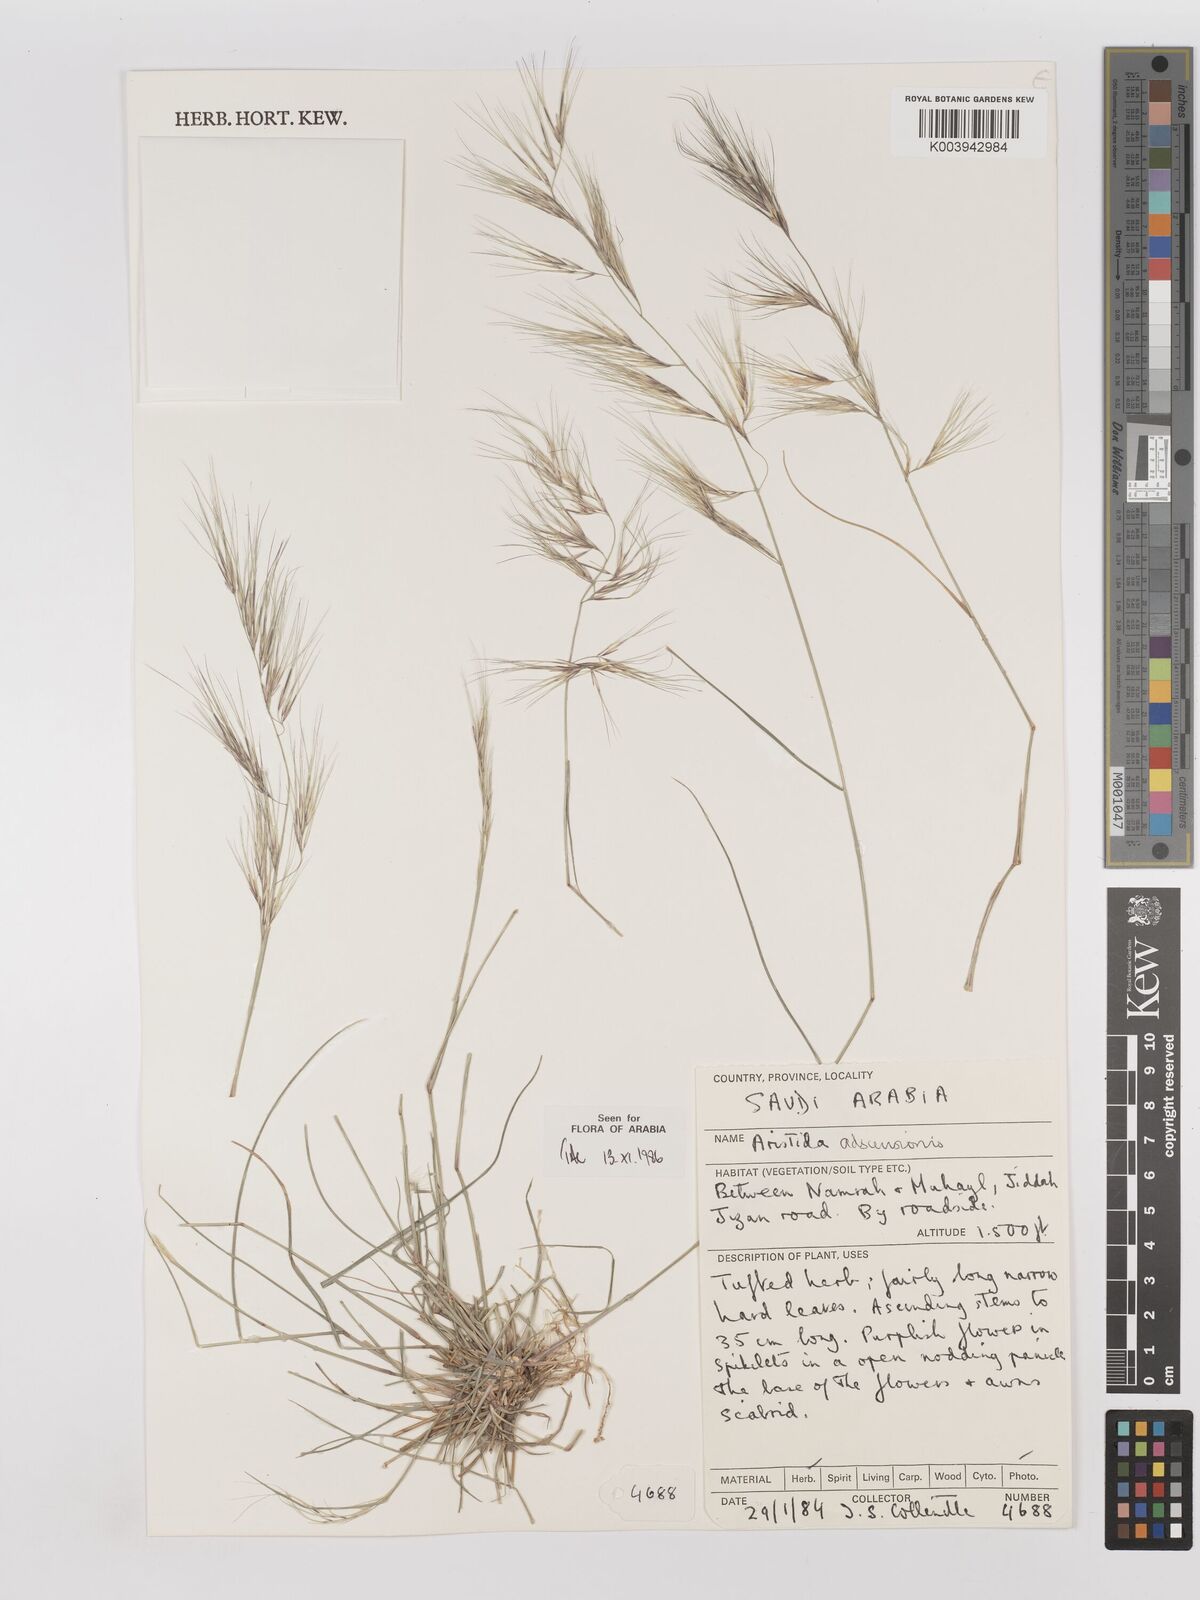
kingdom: Plantae
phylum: Tracheophyta
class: Liliopsida
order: Poales
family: Poaceae
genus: Aristida
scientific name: Aristida adscensionis
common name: Sixweeks threeawn
